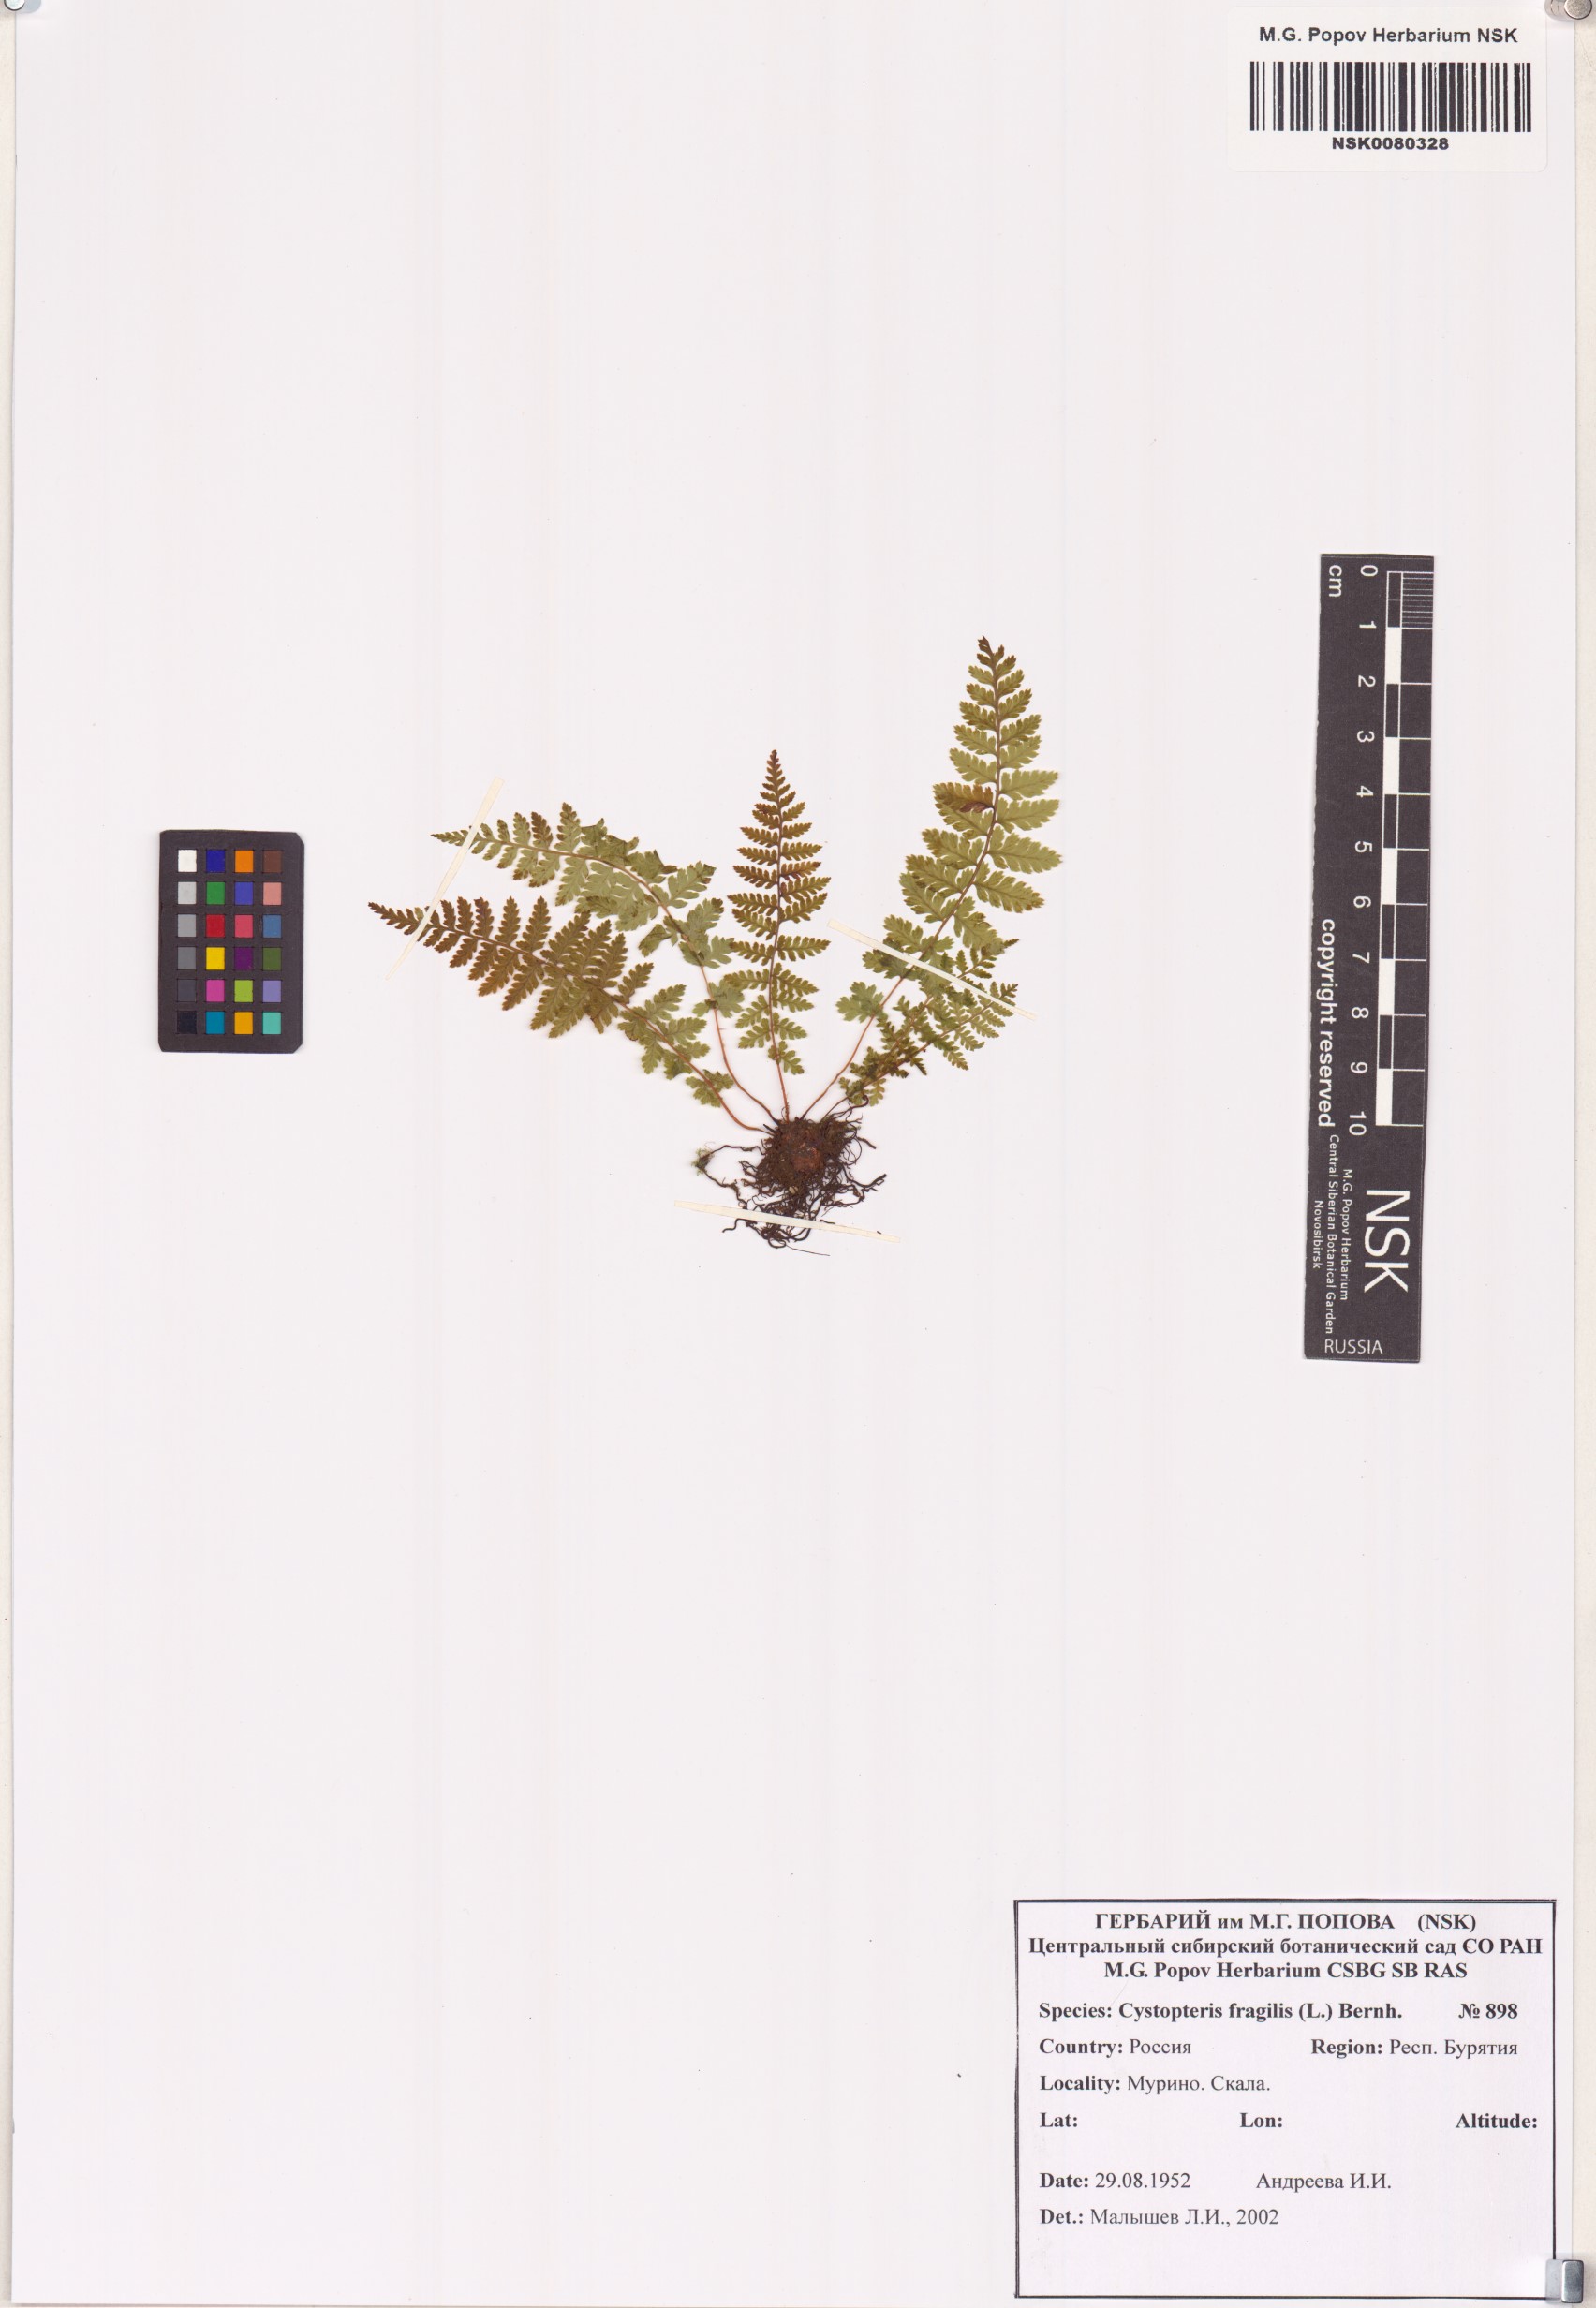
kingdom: Plantae
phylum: Tracheophyta
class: Polypodiopsida
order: Polypodiales
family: Cystopteridaceae
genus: Cystopteris
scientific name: Cystopteris fragilis
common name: Brittle bladder fern
